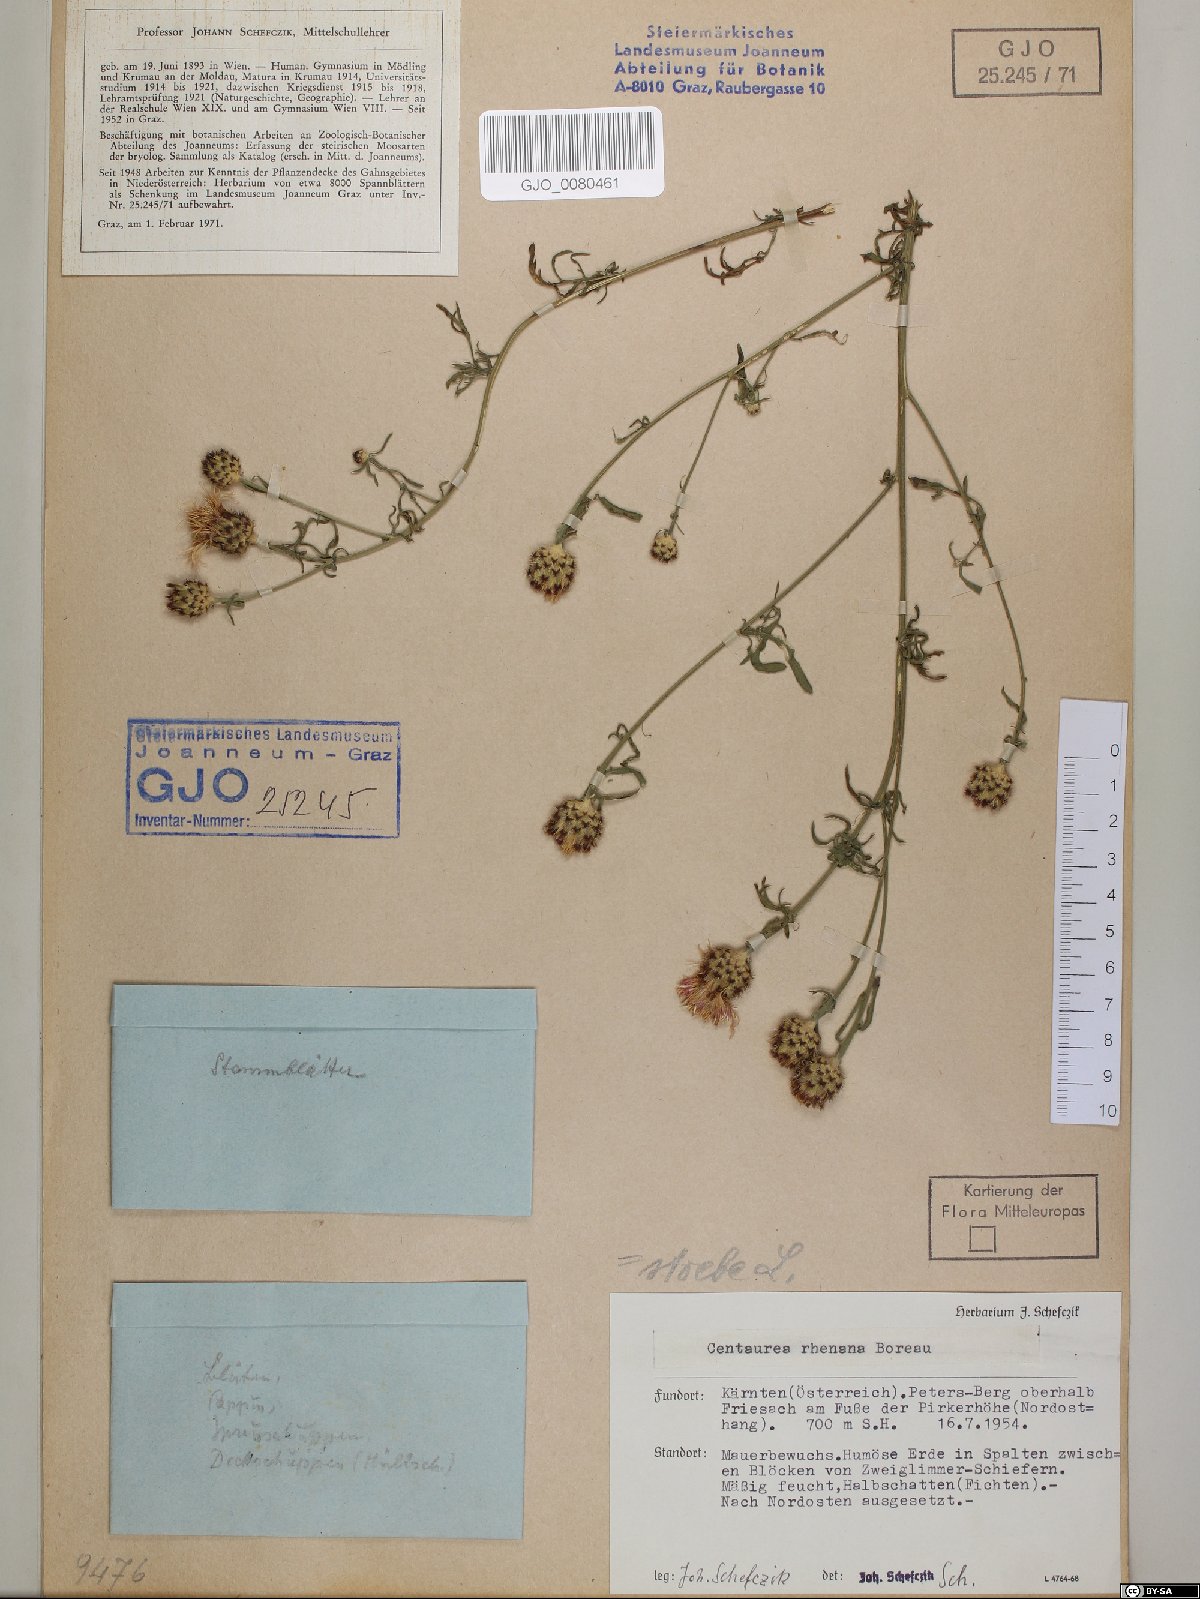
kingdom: Plantae
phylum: Tracheophyta
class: Magnoliopsida
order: Asterales
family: Asteraceae
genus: Centaurea
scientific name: Centaurea stoebe
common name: Spotted knapweed
